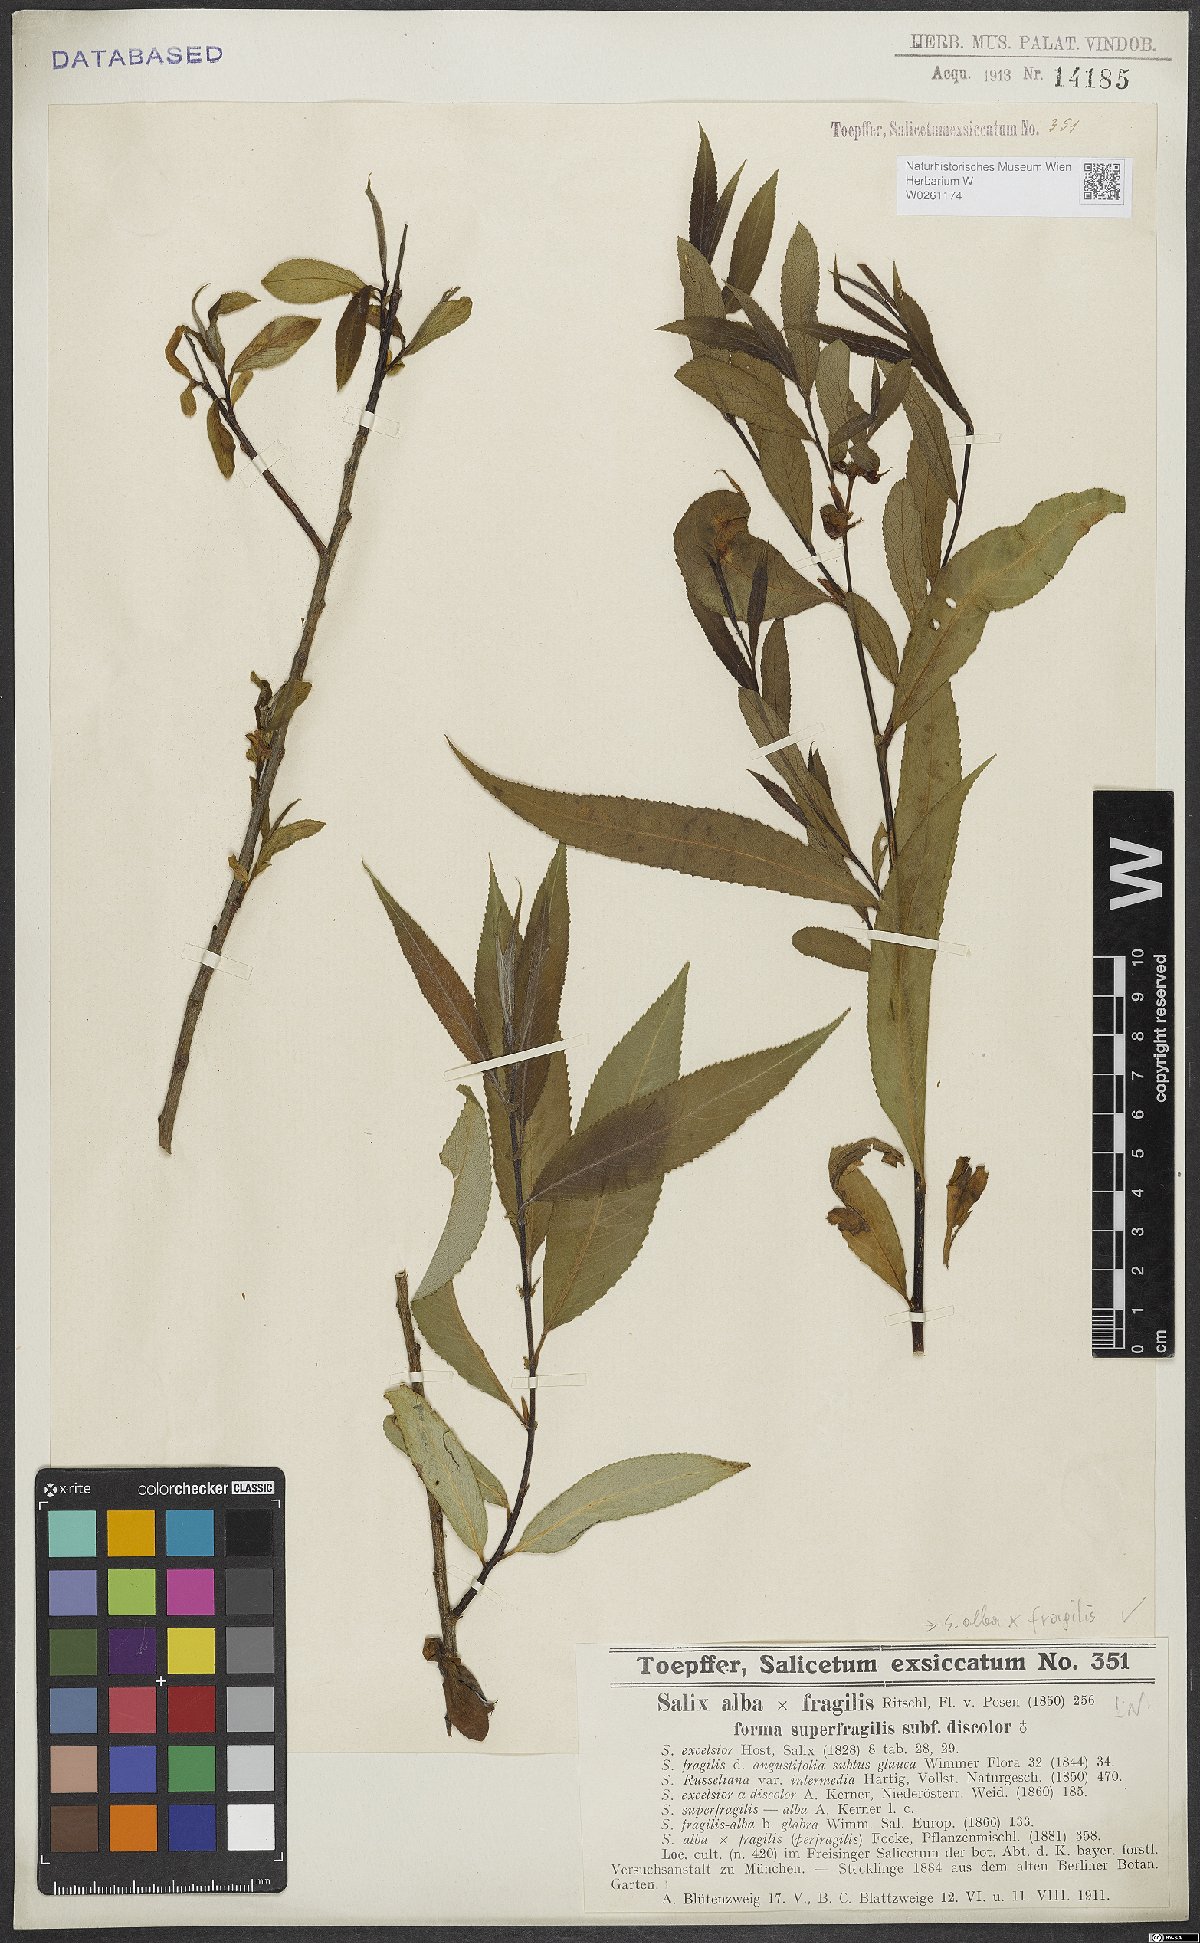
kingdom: Plantae
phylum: Tracheophyta
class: Magnoliopsida
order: Malpighiales
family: Salicaceae
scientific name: Salicaceae
